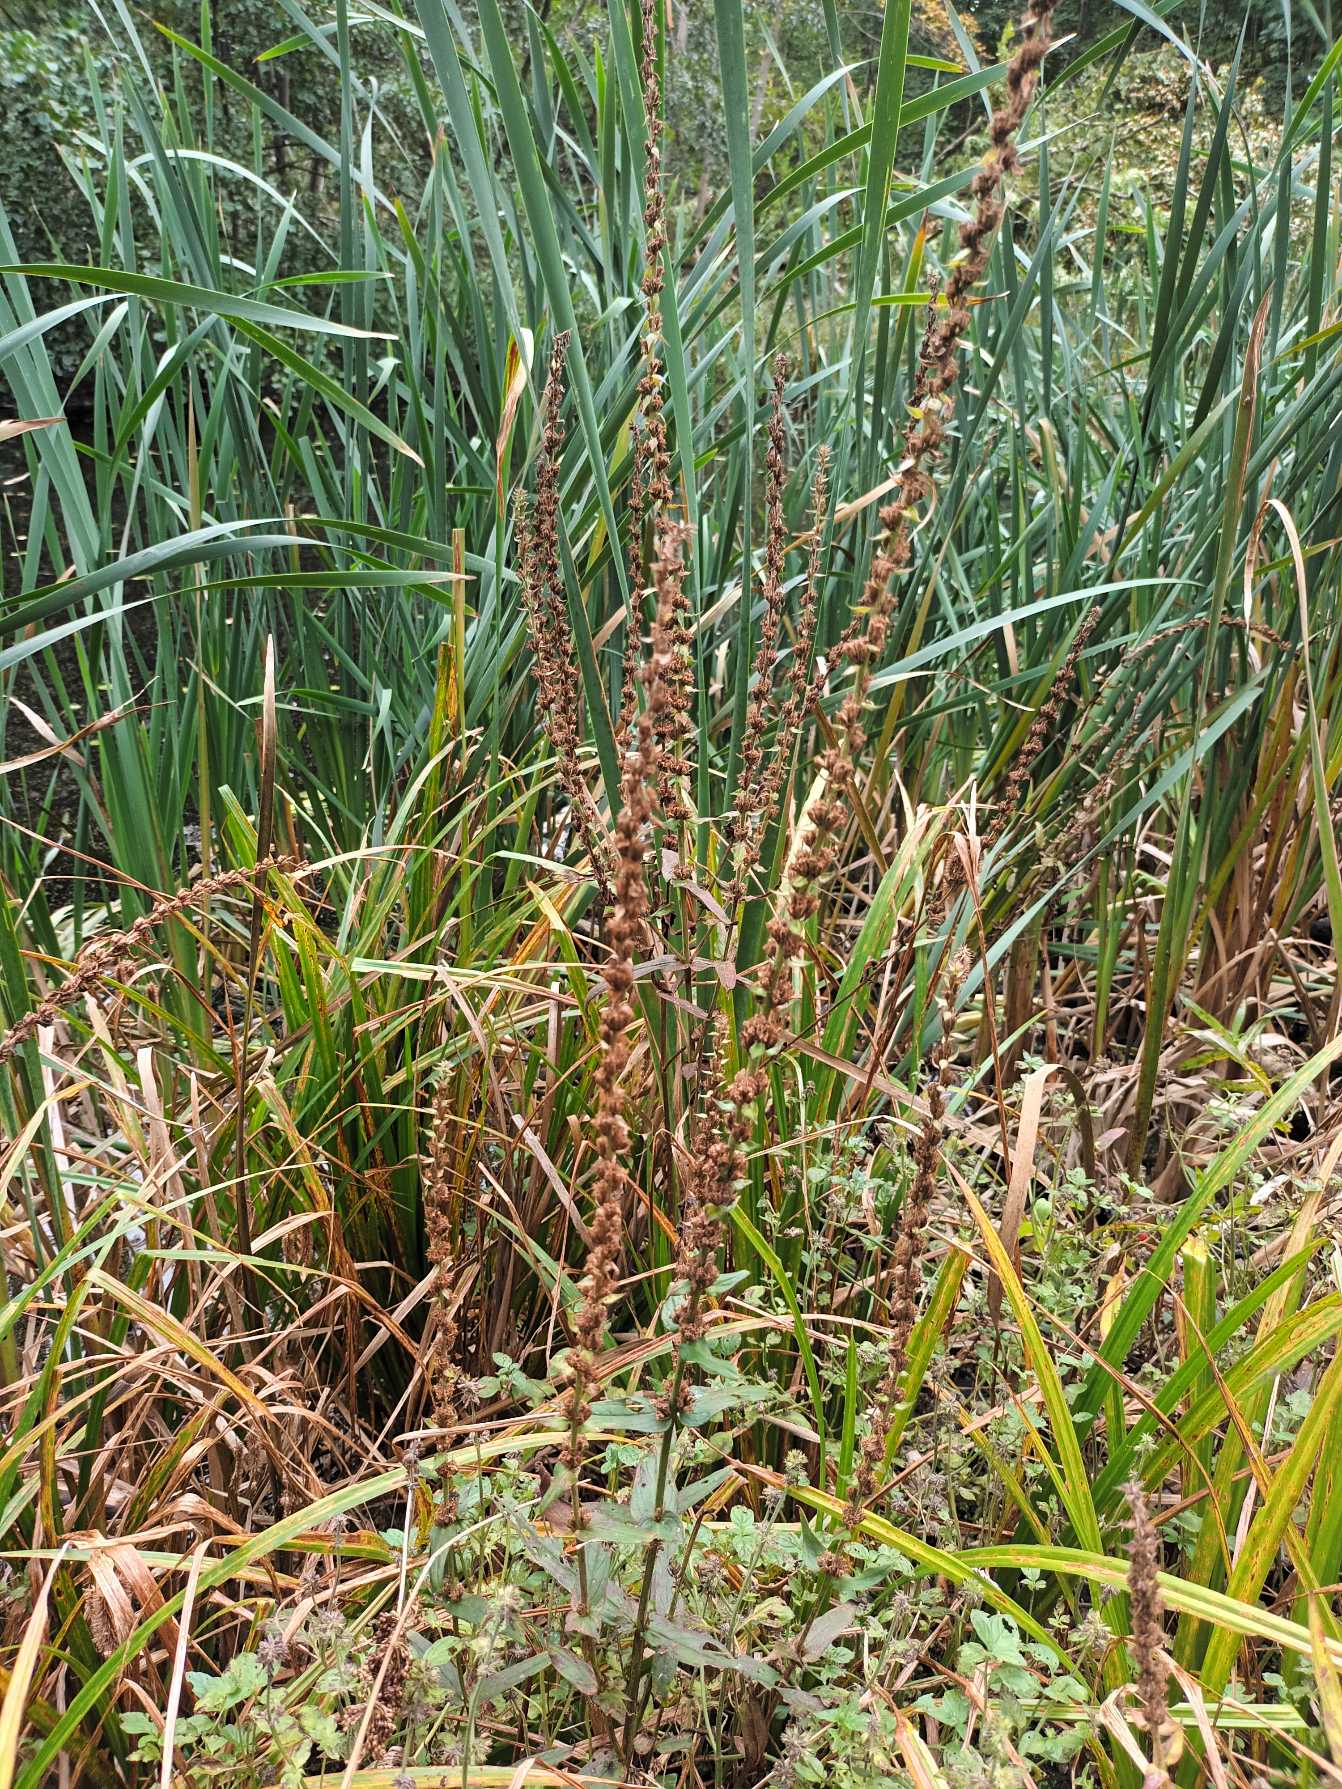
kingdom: Plantae
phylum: Tracheophyta
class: Magnoliopsida
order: Myrtales
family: Lythraceae
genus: Lythrum
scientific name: Lythrum salicaria
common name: Kattehale
